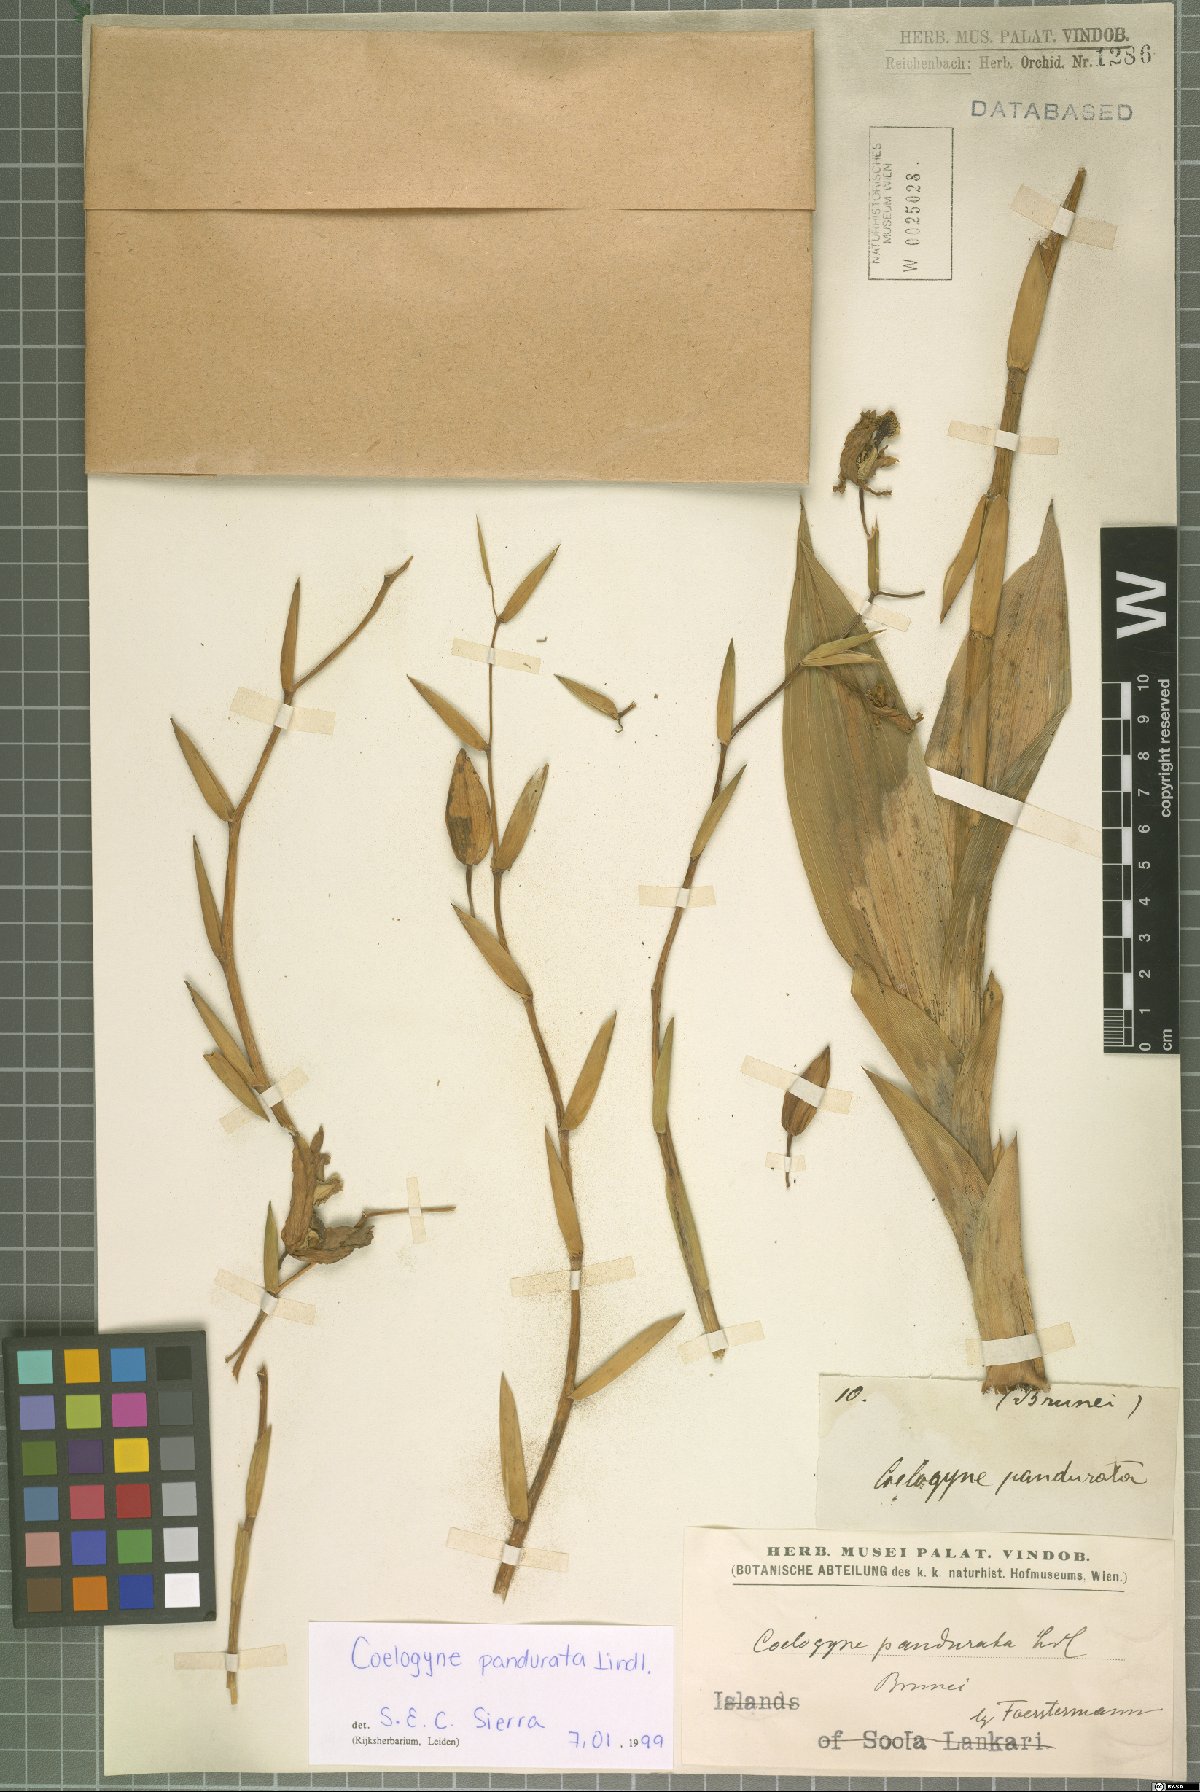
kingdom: Plantae
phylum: Tracheophyta
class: Liliopsida
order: Asparagales
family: Orchidaceae
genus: Coelogyne
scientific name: Coelogyne pandurata
